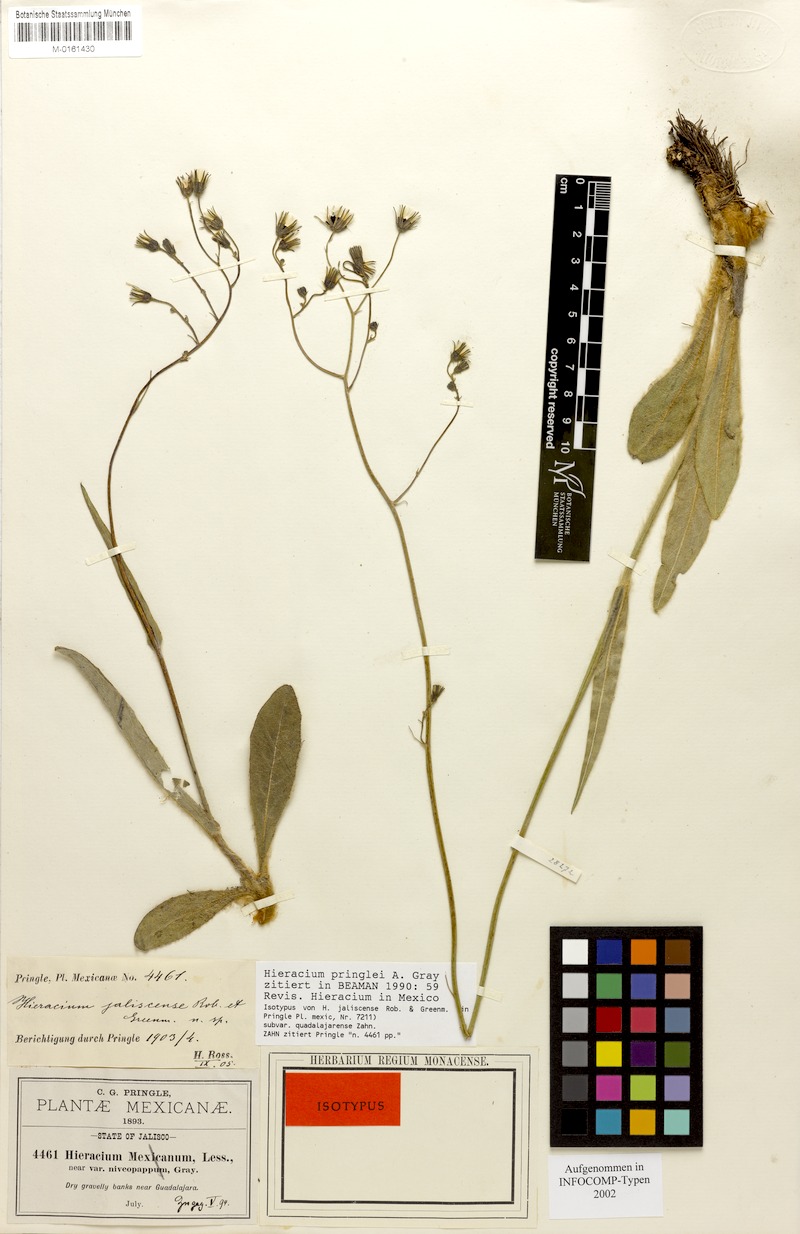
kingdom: Plantae
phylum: Tracheophyta
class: Magnoliopsida
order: Asterales
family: Asteraceae
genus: Hieracium
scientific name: Hieracium pringlei
